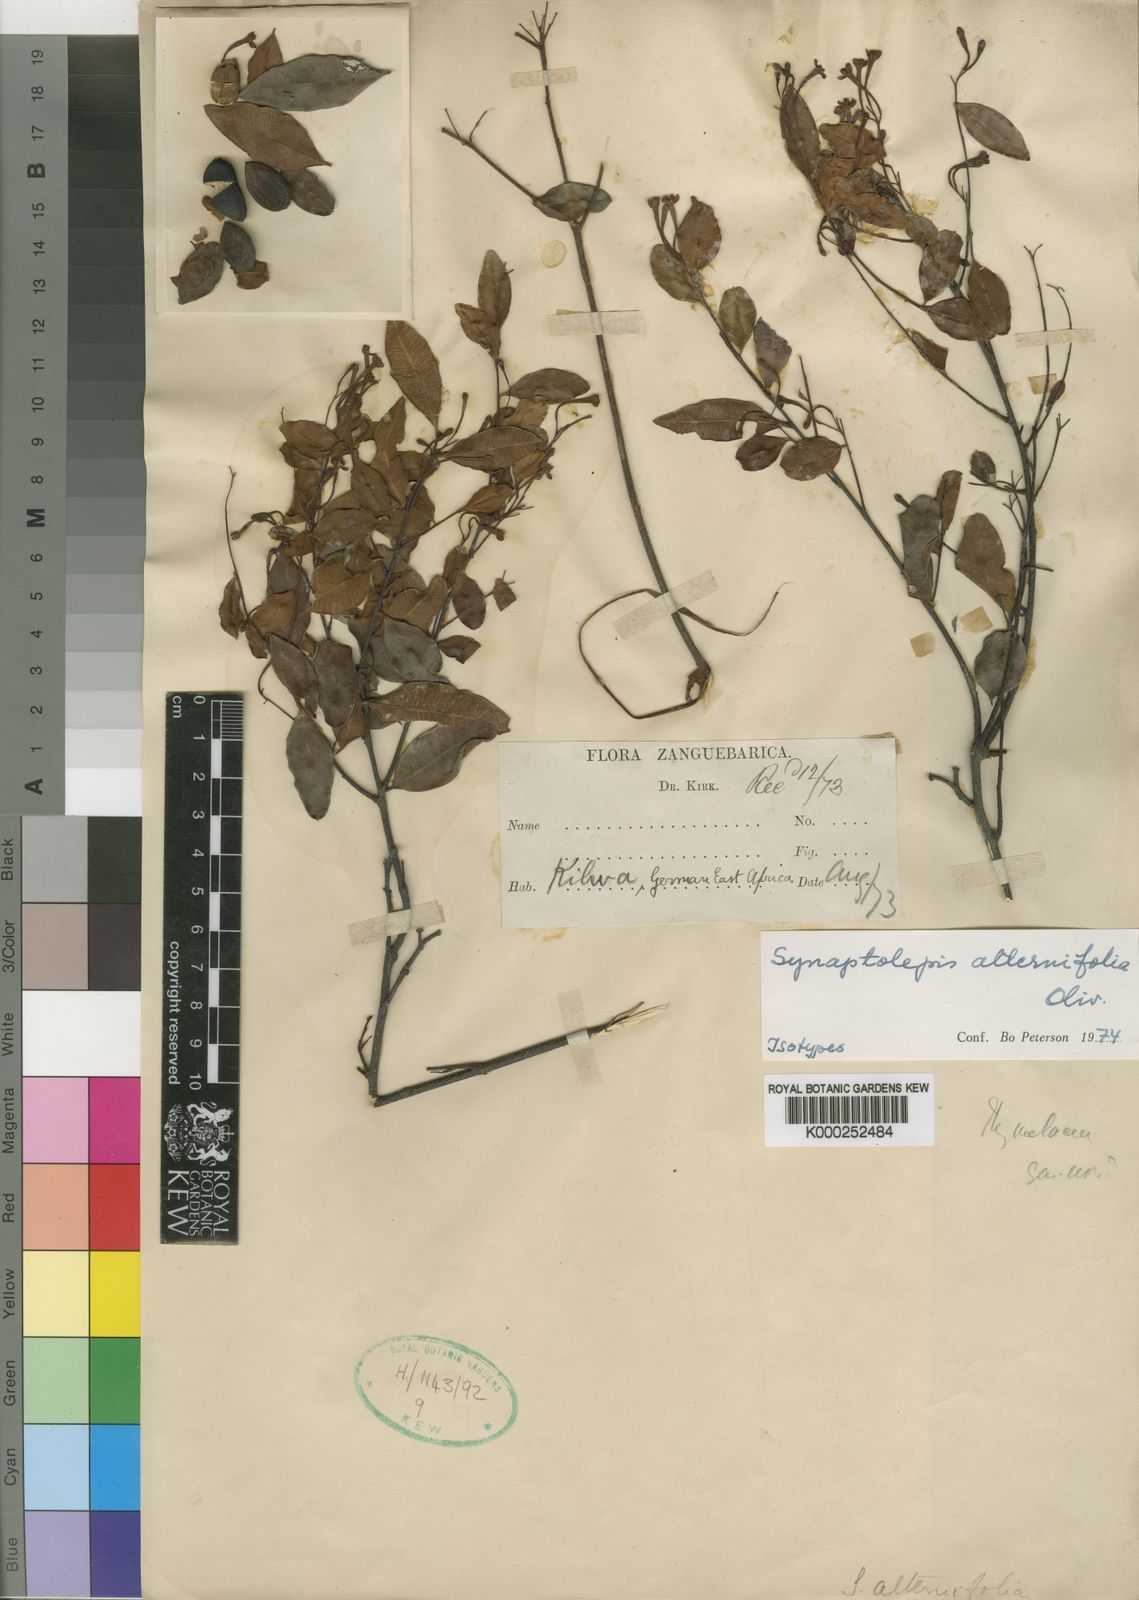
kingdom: Plantae
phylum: Tracheophyta
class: Magnoliopsida
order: Malvales
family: Thymelaeaceae
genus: Synaptolepis
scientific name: Synaptolepis alternifolia
